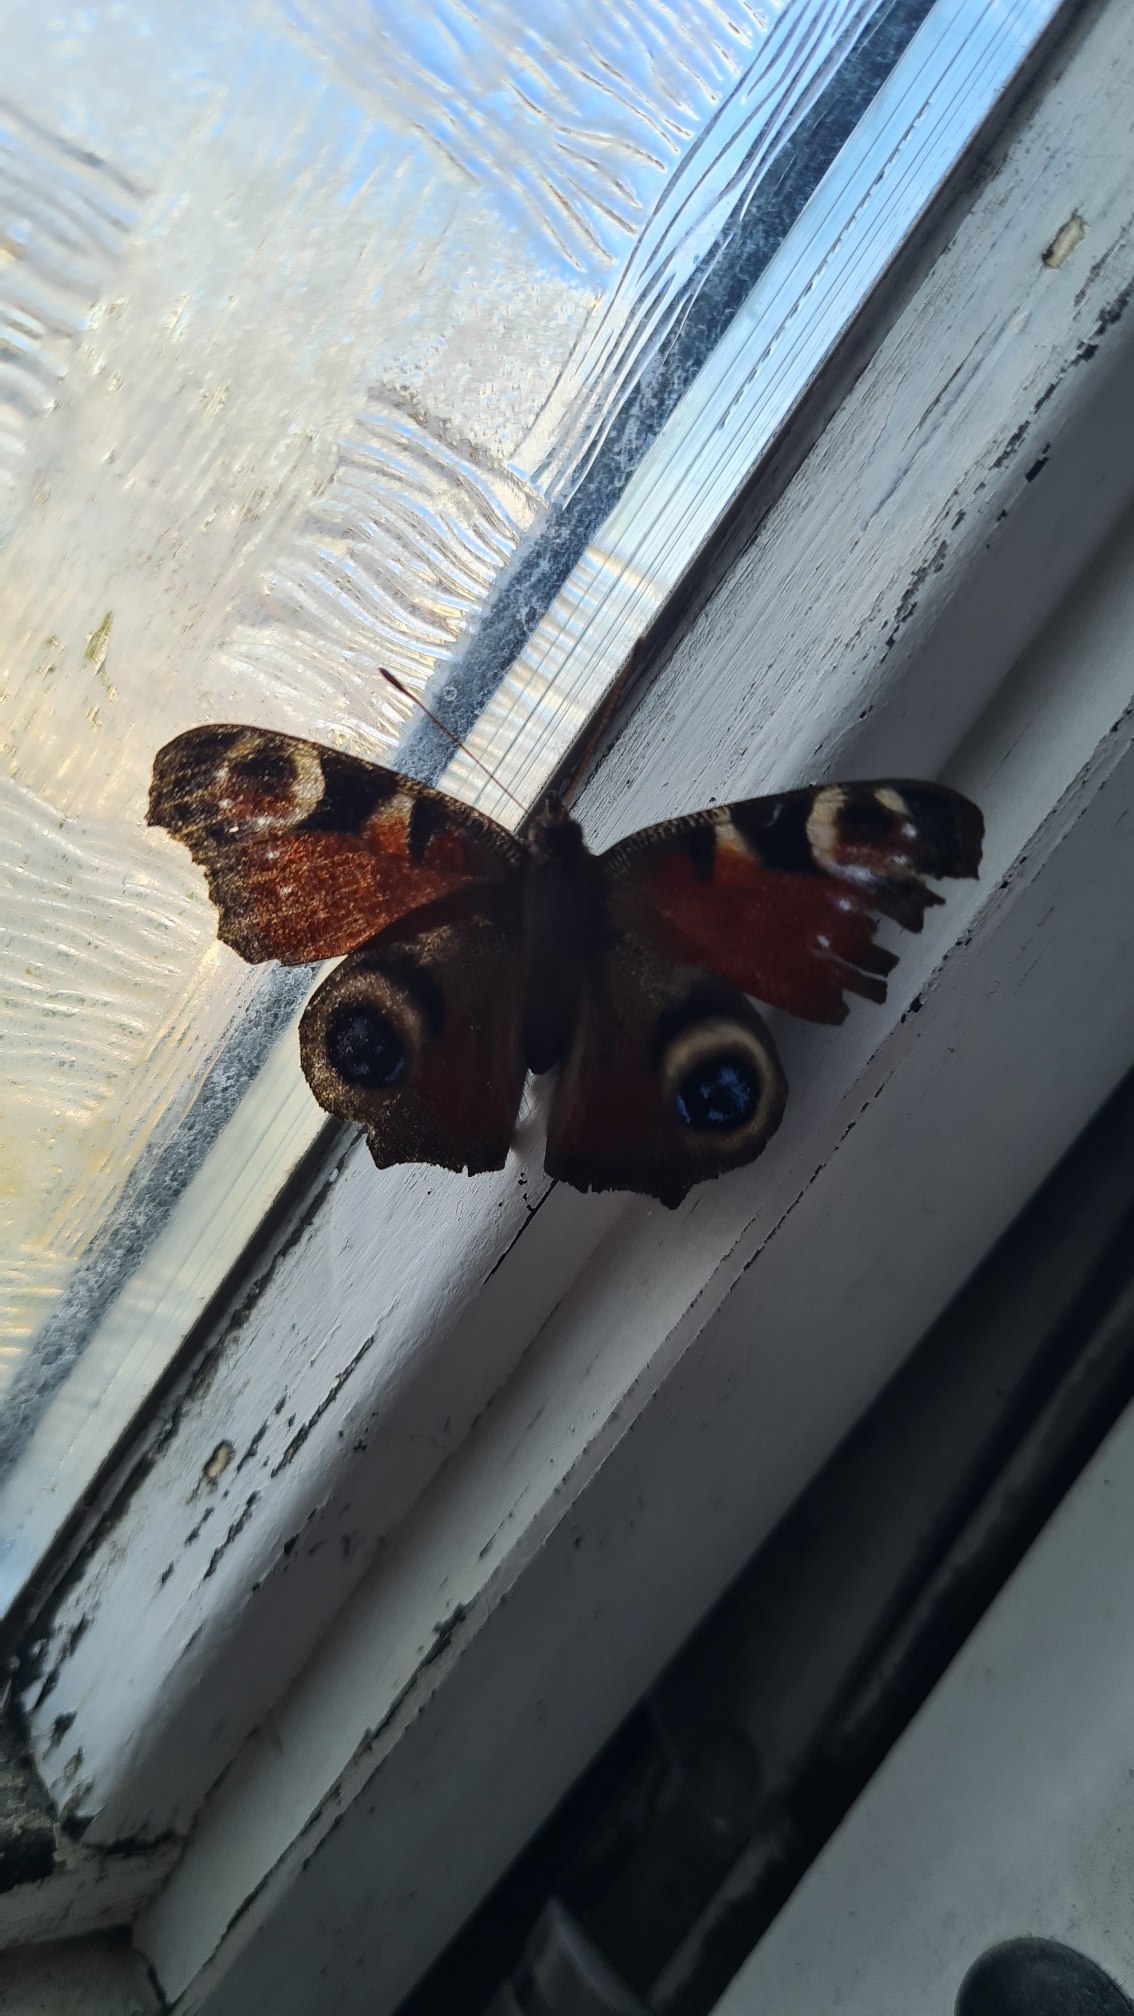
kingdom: Animalia
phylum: Arthropoda
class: Insecta
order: Lepidoptera
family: Nymphalidae
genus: Aglais
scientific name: Aglais io
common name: Dagpåfugleøje
